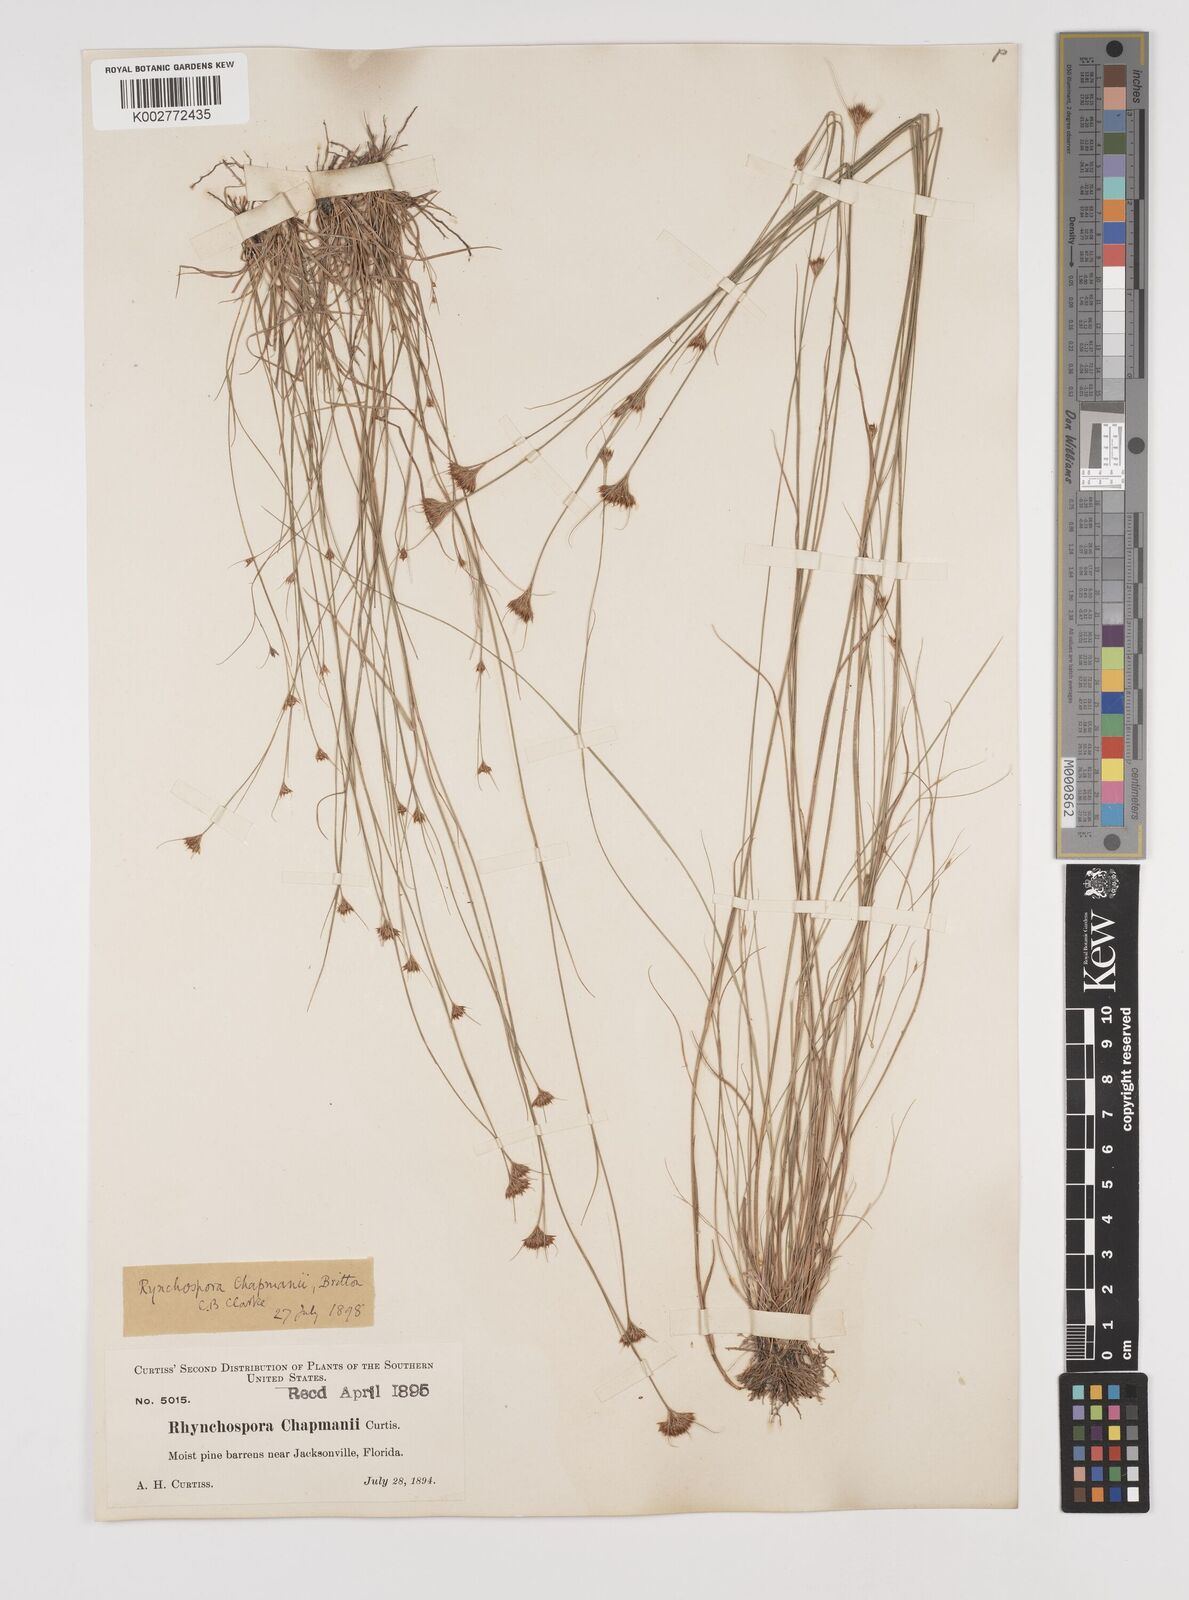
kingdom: Plantae
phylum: Tracheophyta
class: Liliopsida
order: Poales
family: Cyperaceae
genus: Rhynchospora
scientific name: Rhynchospora
